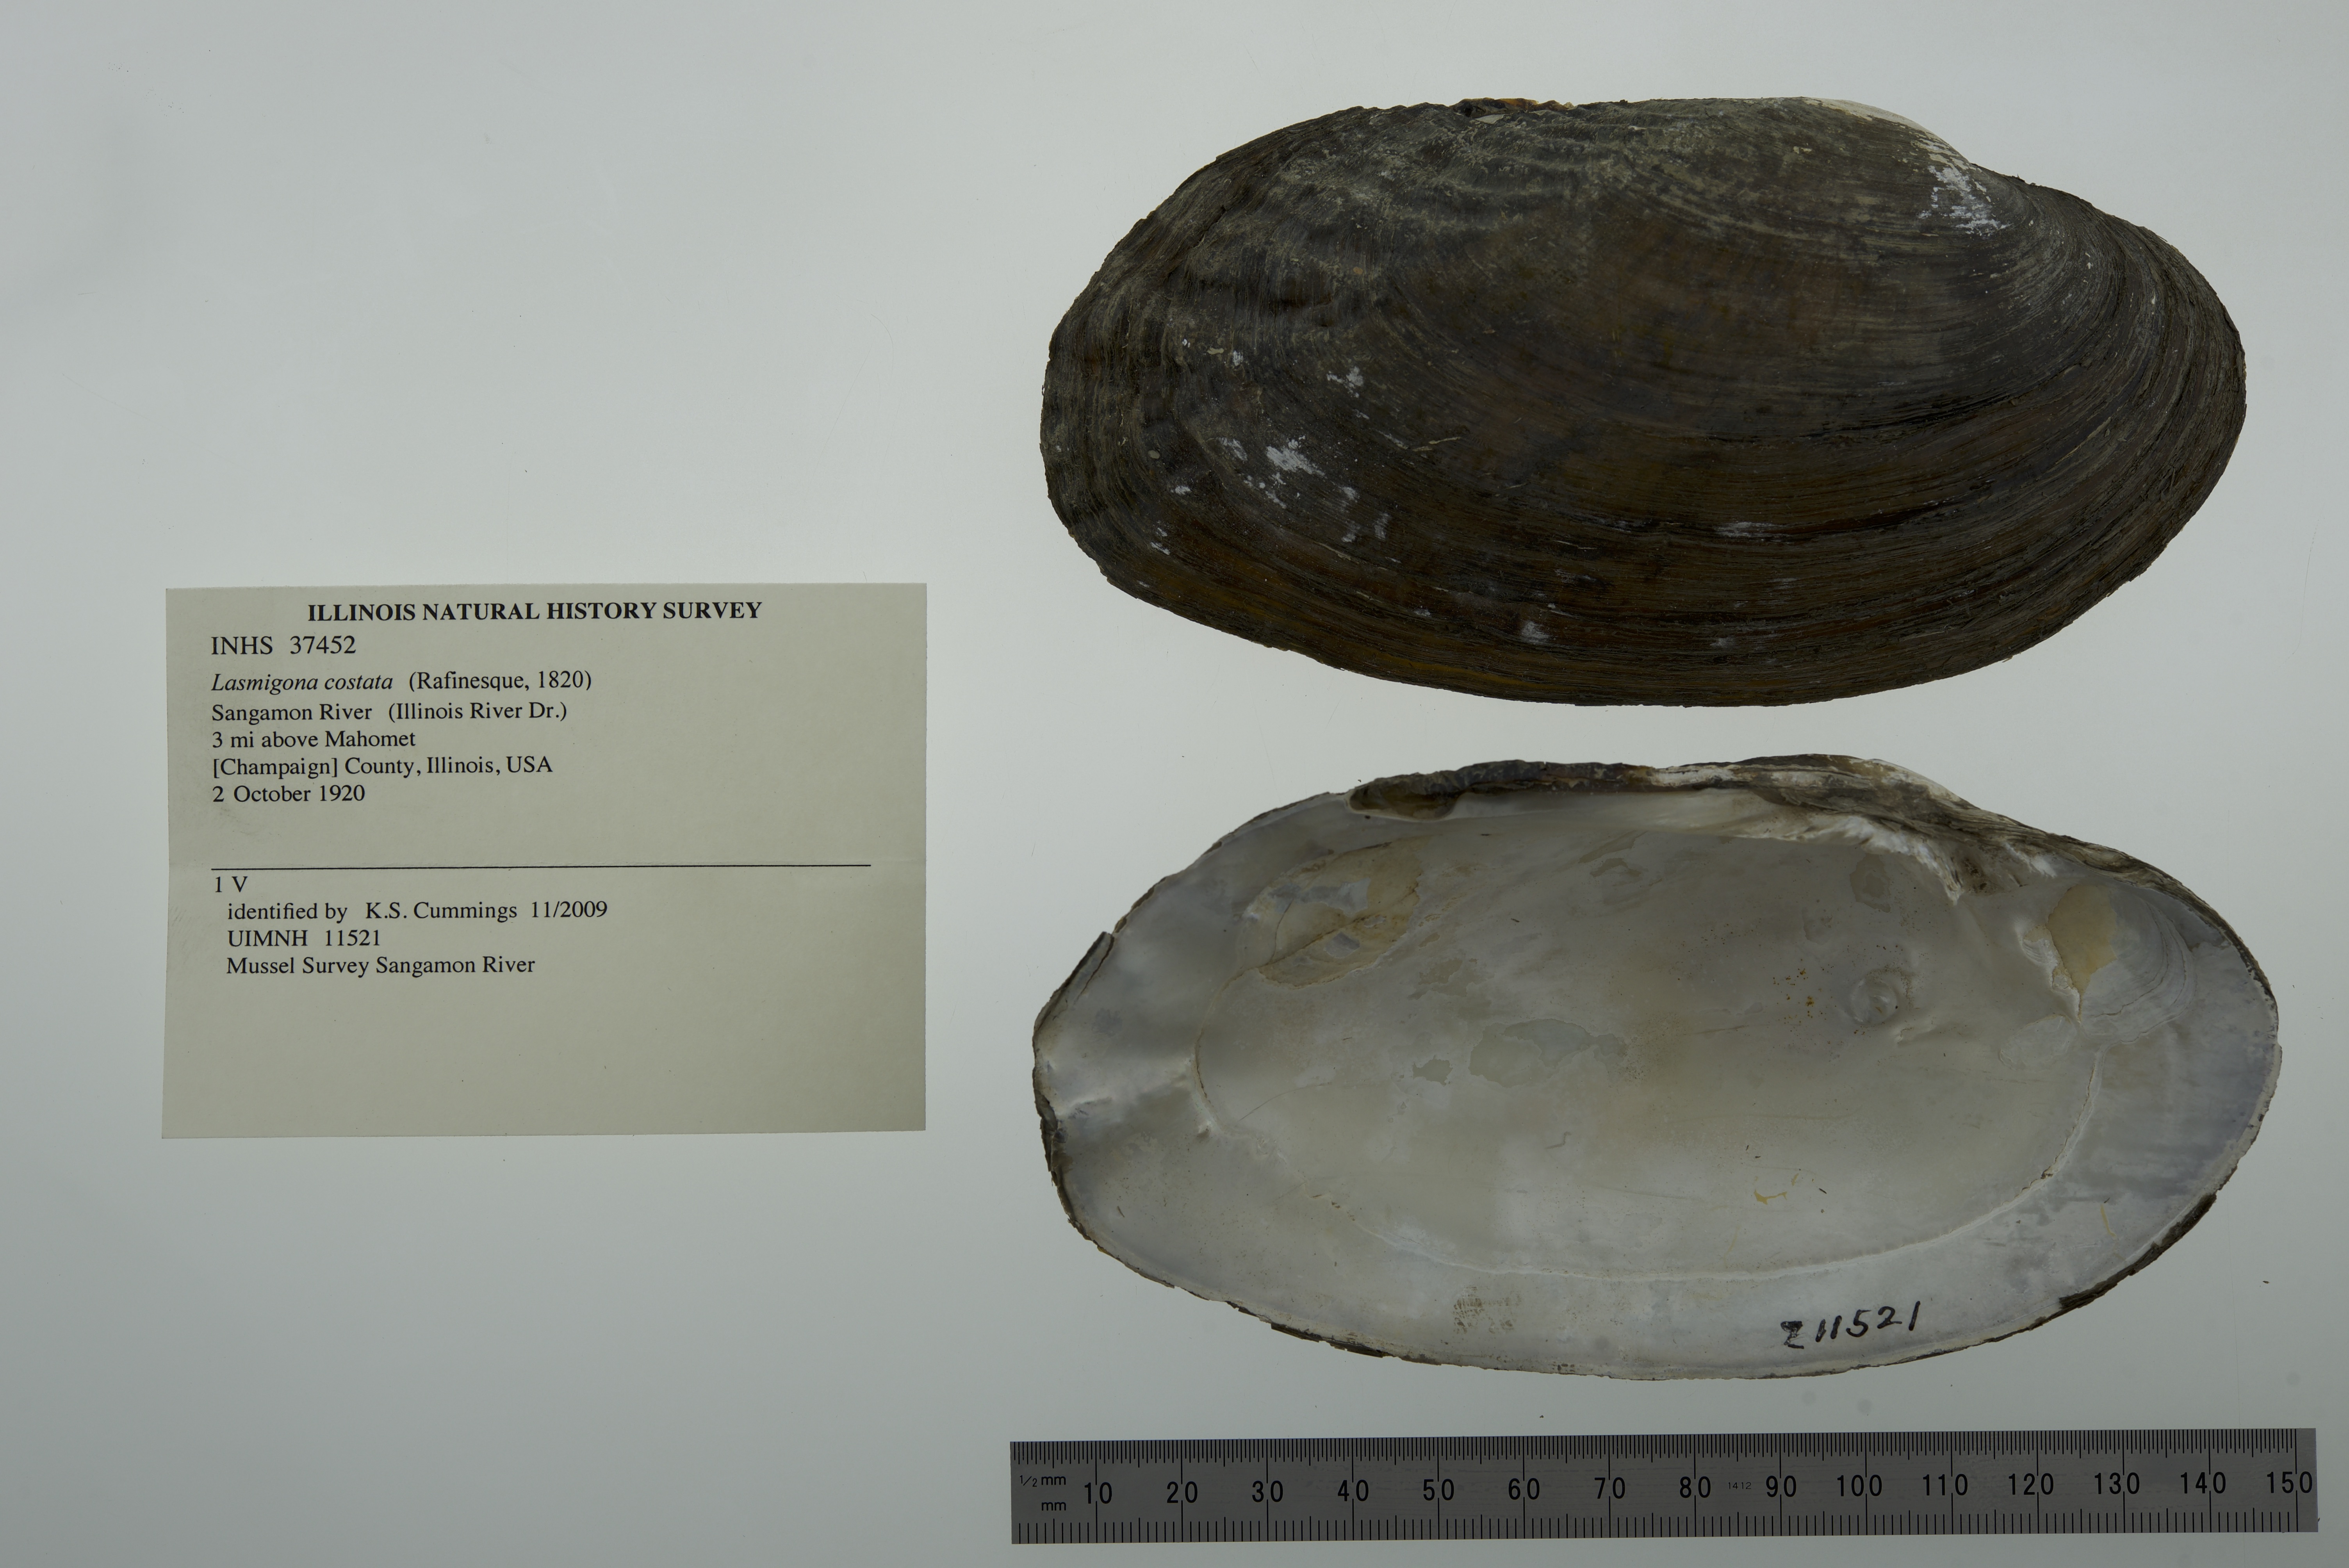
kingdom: Animalia
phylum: Mollusca
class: Bivalvia
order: Unionida
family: Unionidae
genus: Lasmigona
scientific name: Lasmigona costata
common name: Flutedshell
